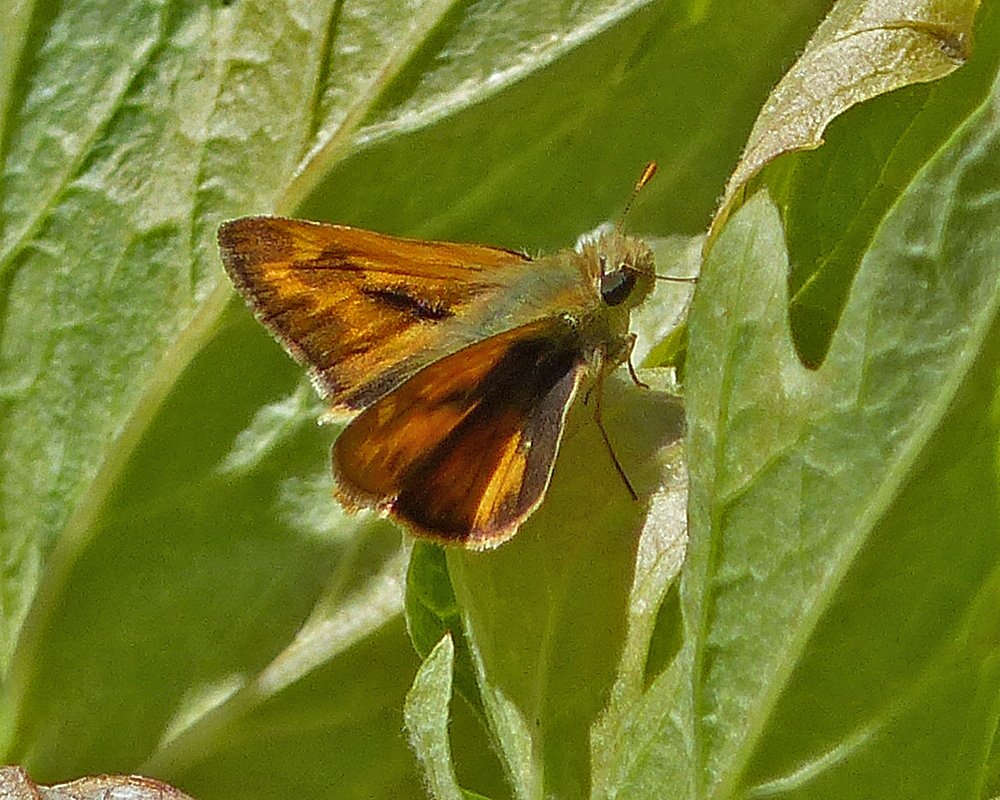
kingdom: Animalia
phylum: Arthropoda
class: Insecta
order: Lepidoptera
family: Hesperiidae
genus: Ochlodes
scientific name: Ochlodes sylvanoides
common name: Woodland Skipper
